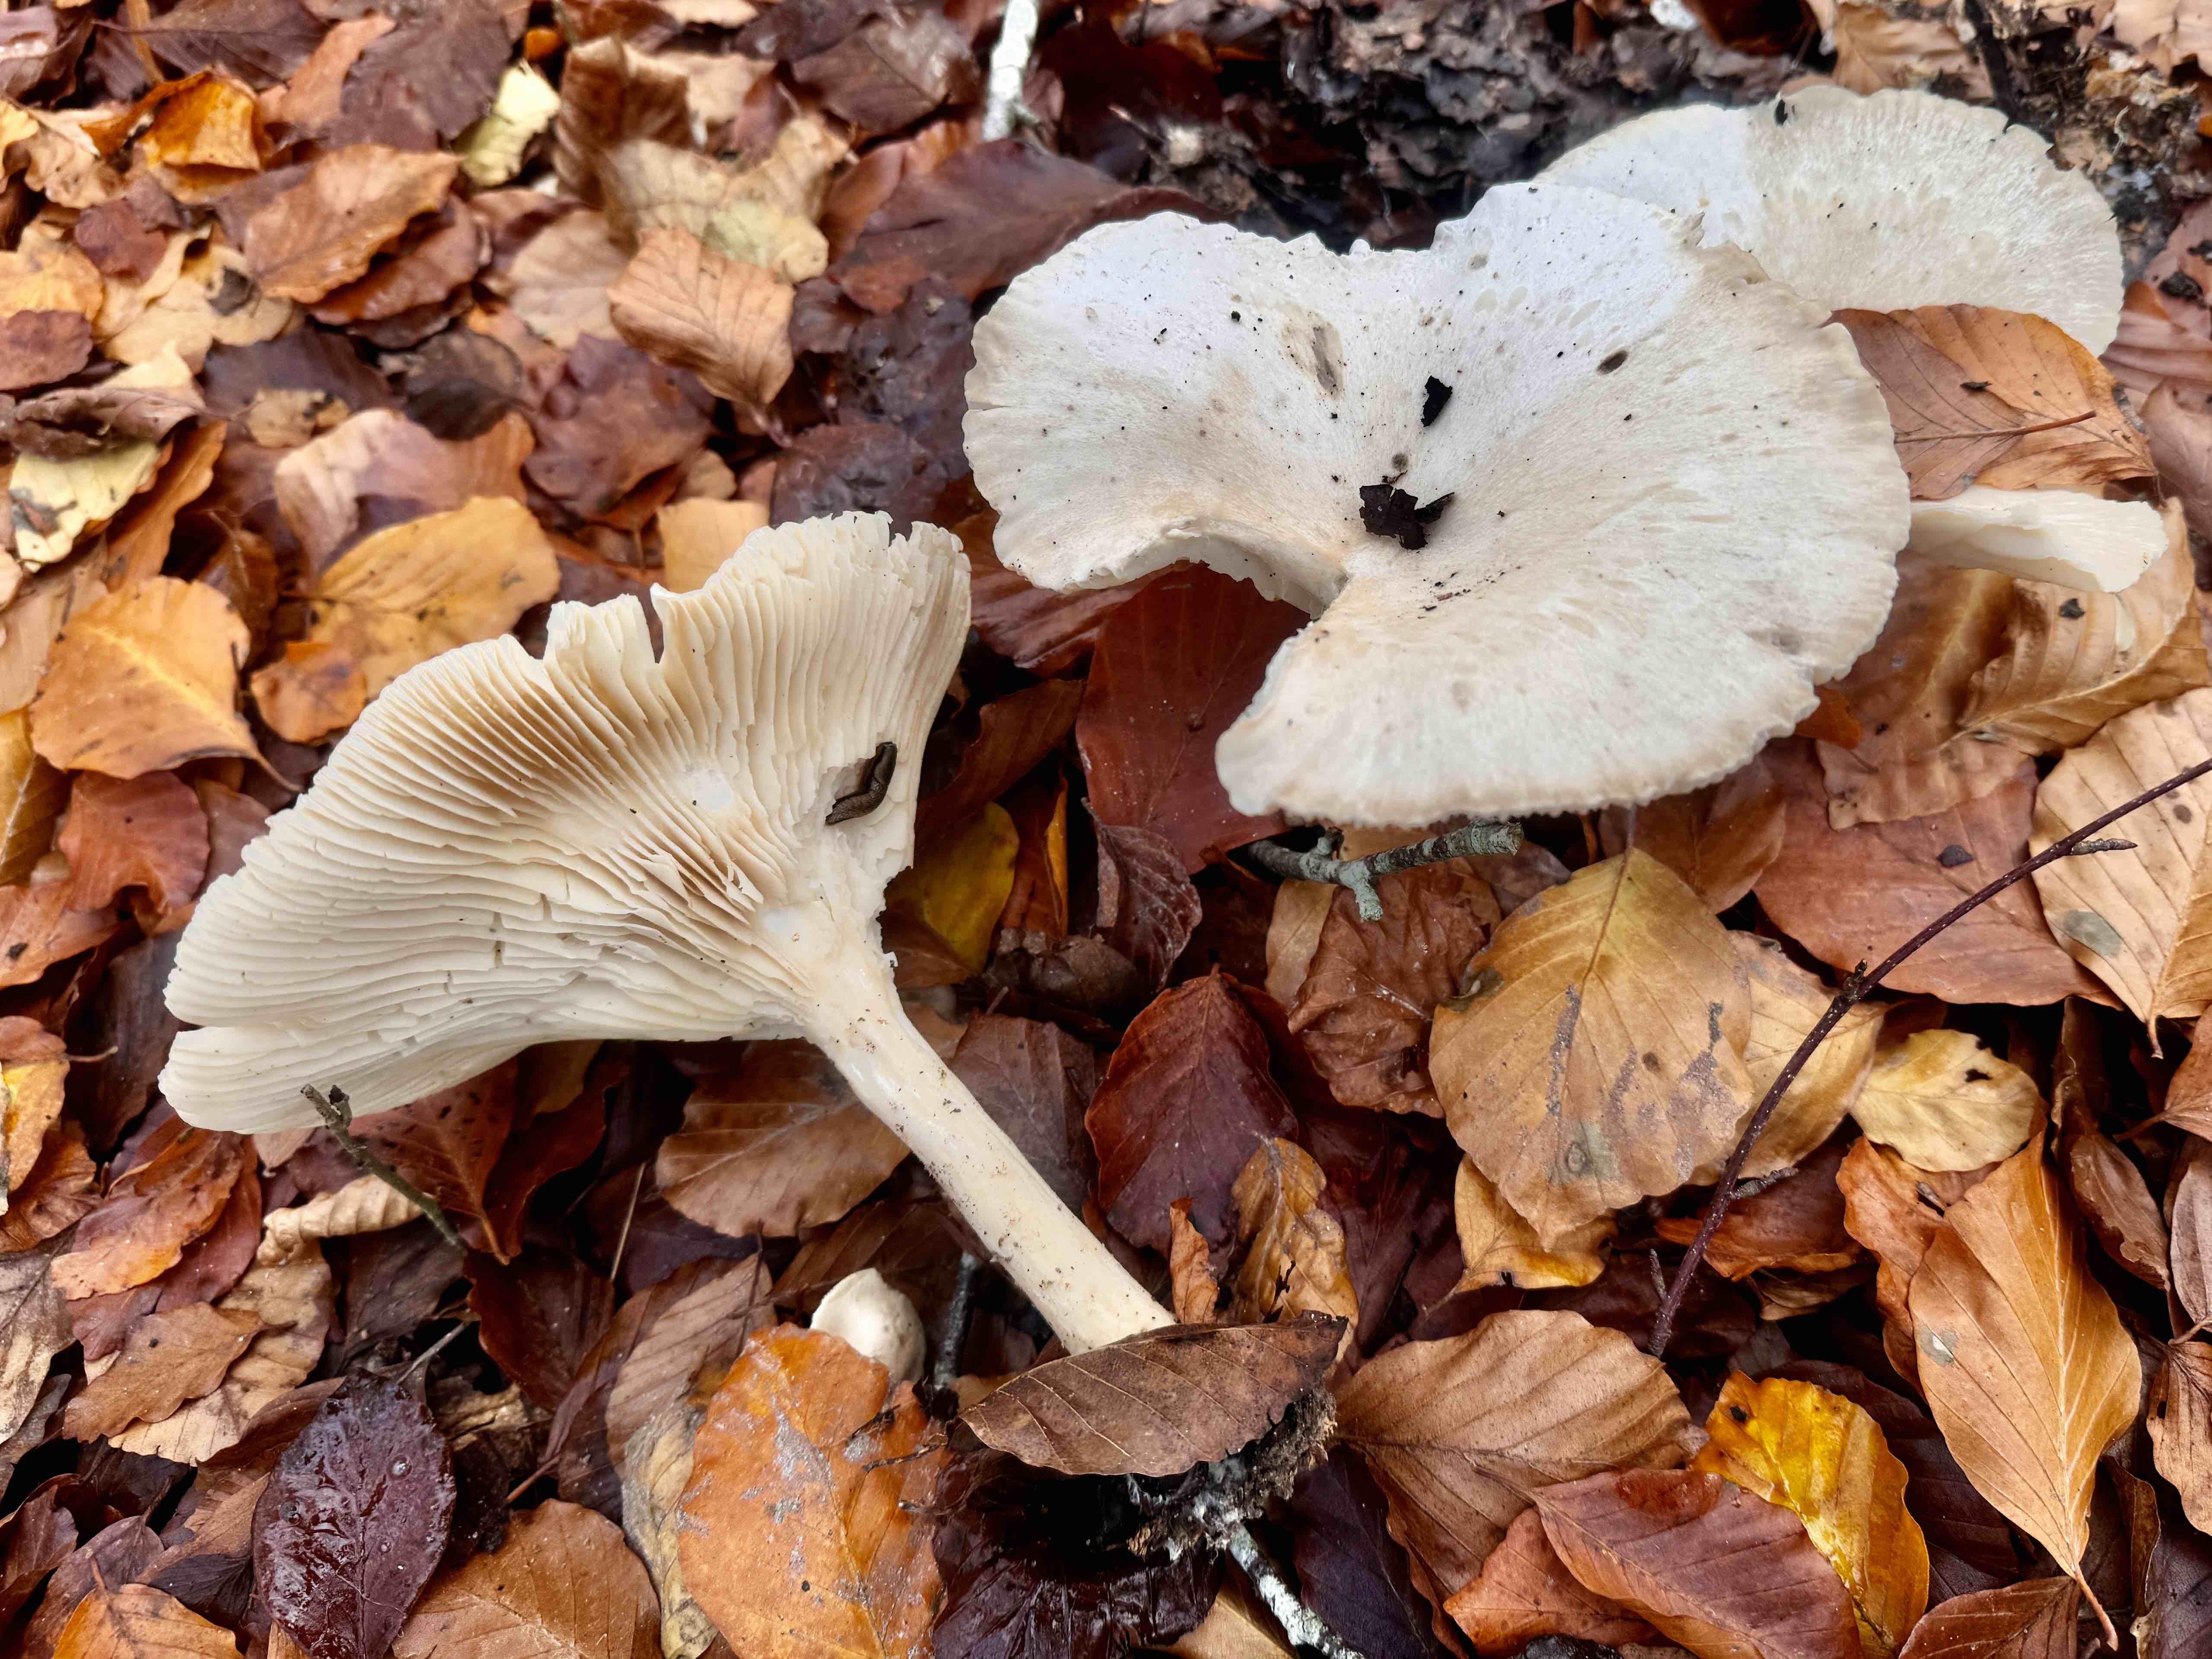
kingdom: Fungi
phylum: Basidiomycota
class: Agaricomycetes
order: Agaricales
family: Tricholomataceae
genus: Infundibulicybe
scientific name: Infundibulicybe geotropa
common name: stor tragthat
